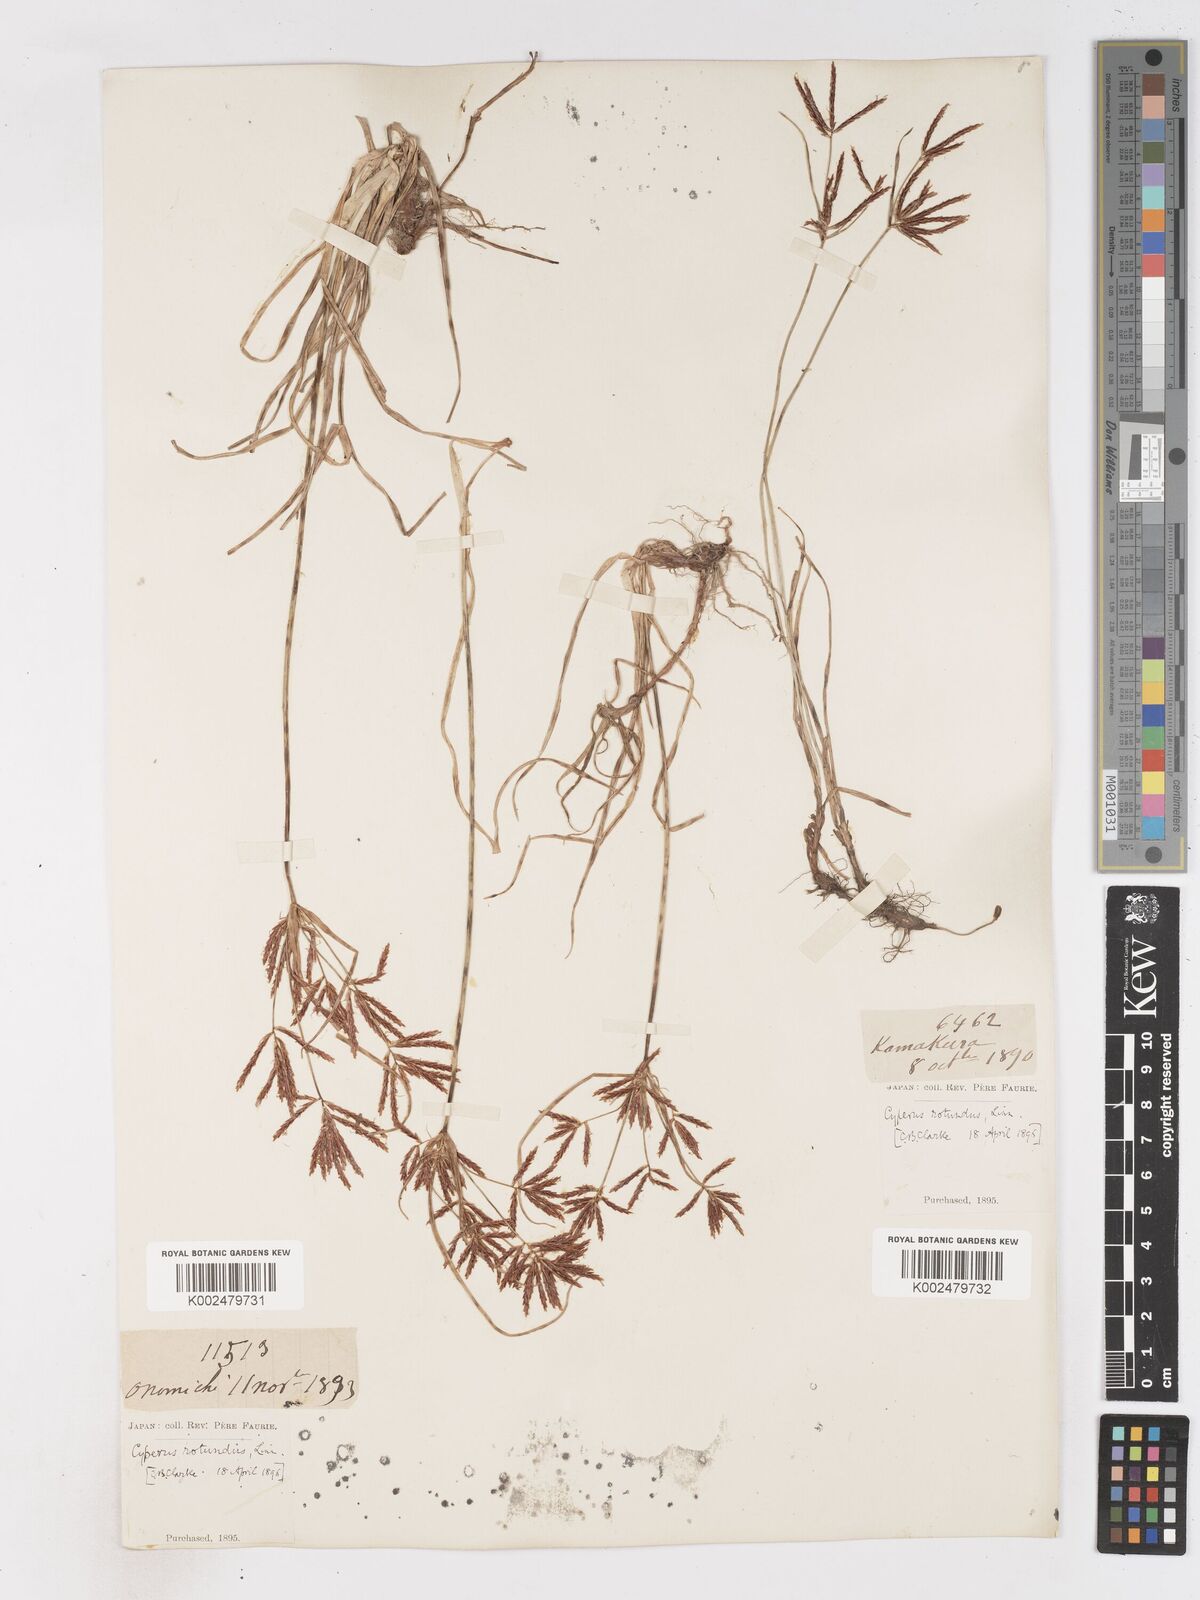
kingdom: Plantae
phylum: Tracheophyta
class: Liliopsida
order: Poales
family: Cyperaceae
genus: Cyperus
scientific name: Cyperus rotundus
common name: Nutgrass
